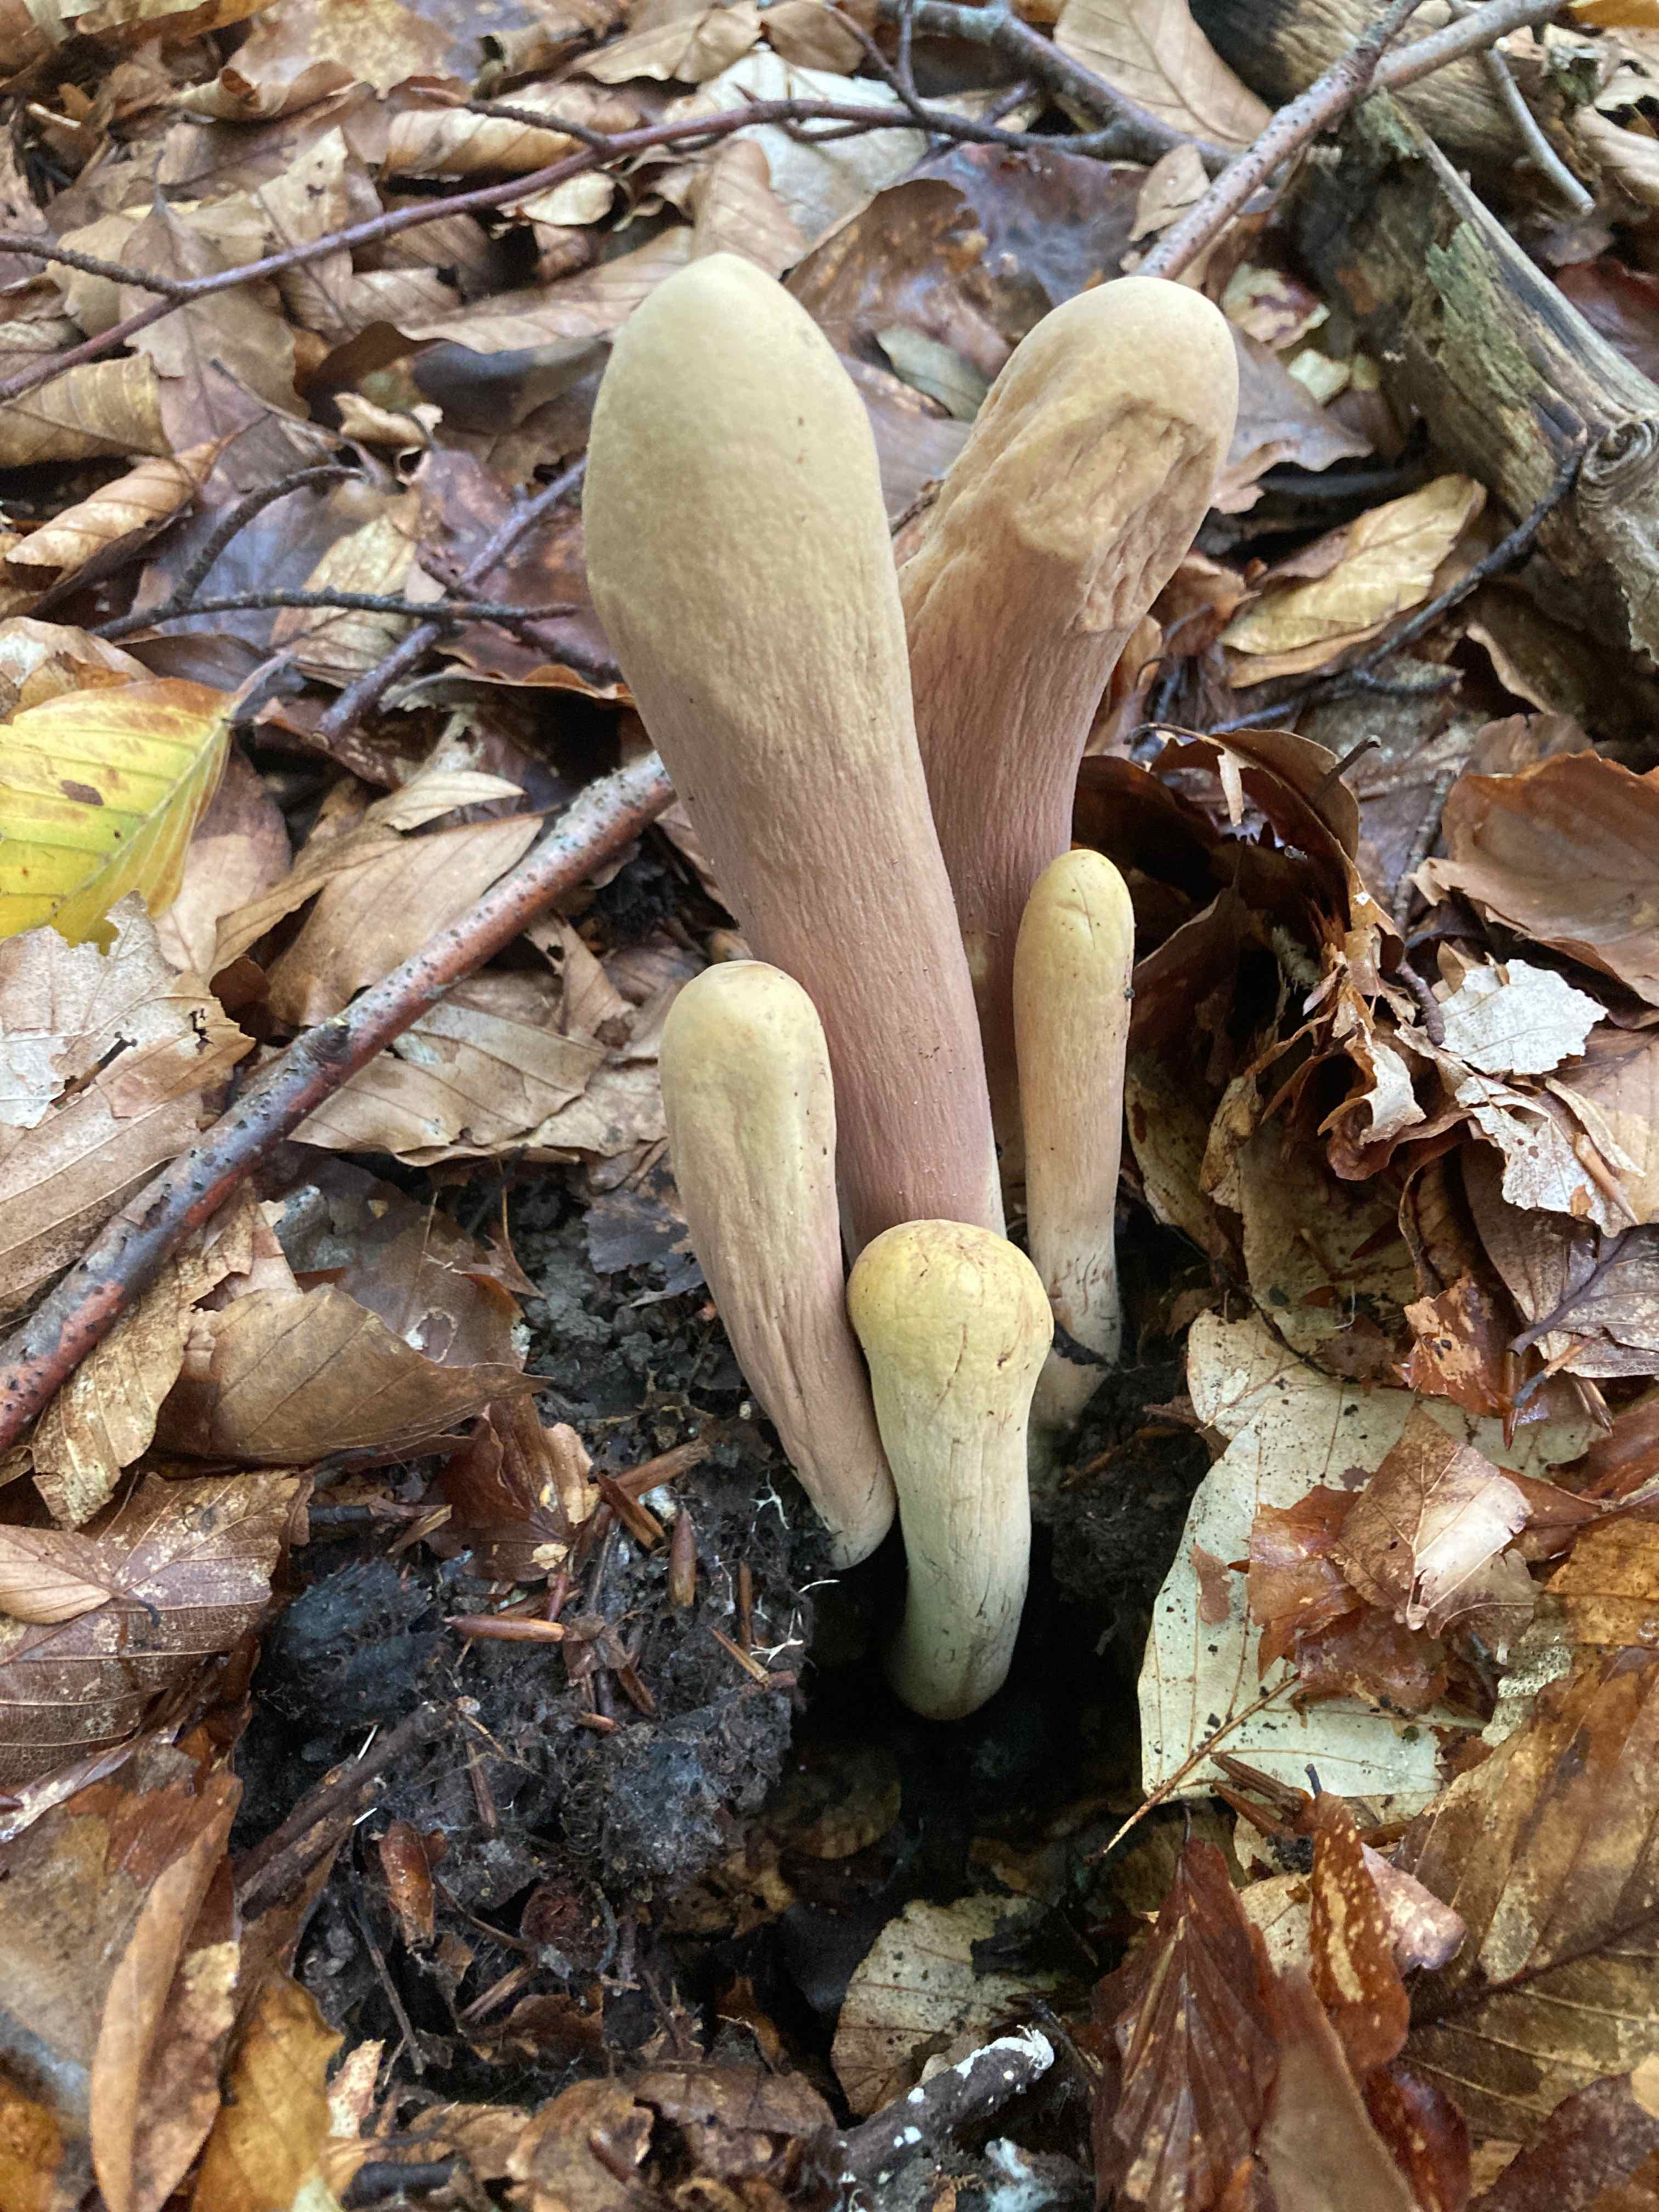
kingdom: Fungi
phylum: Basidiomycota
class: Agaricomycetes
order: Gomphales
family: Clavariadelphaceae
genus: Clavariadelphus
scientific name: Clavariadelphus pistillaris
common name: herkules-kæmpekølle
